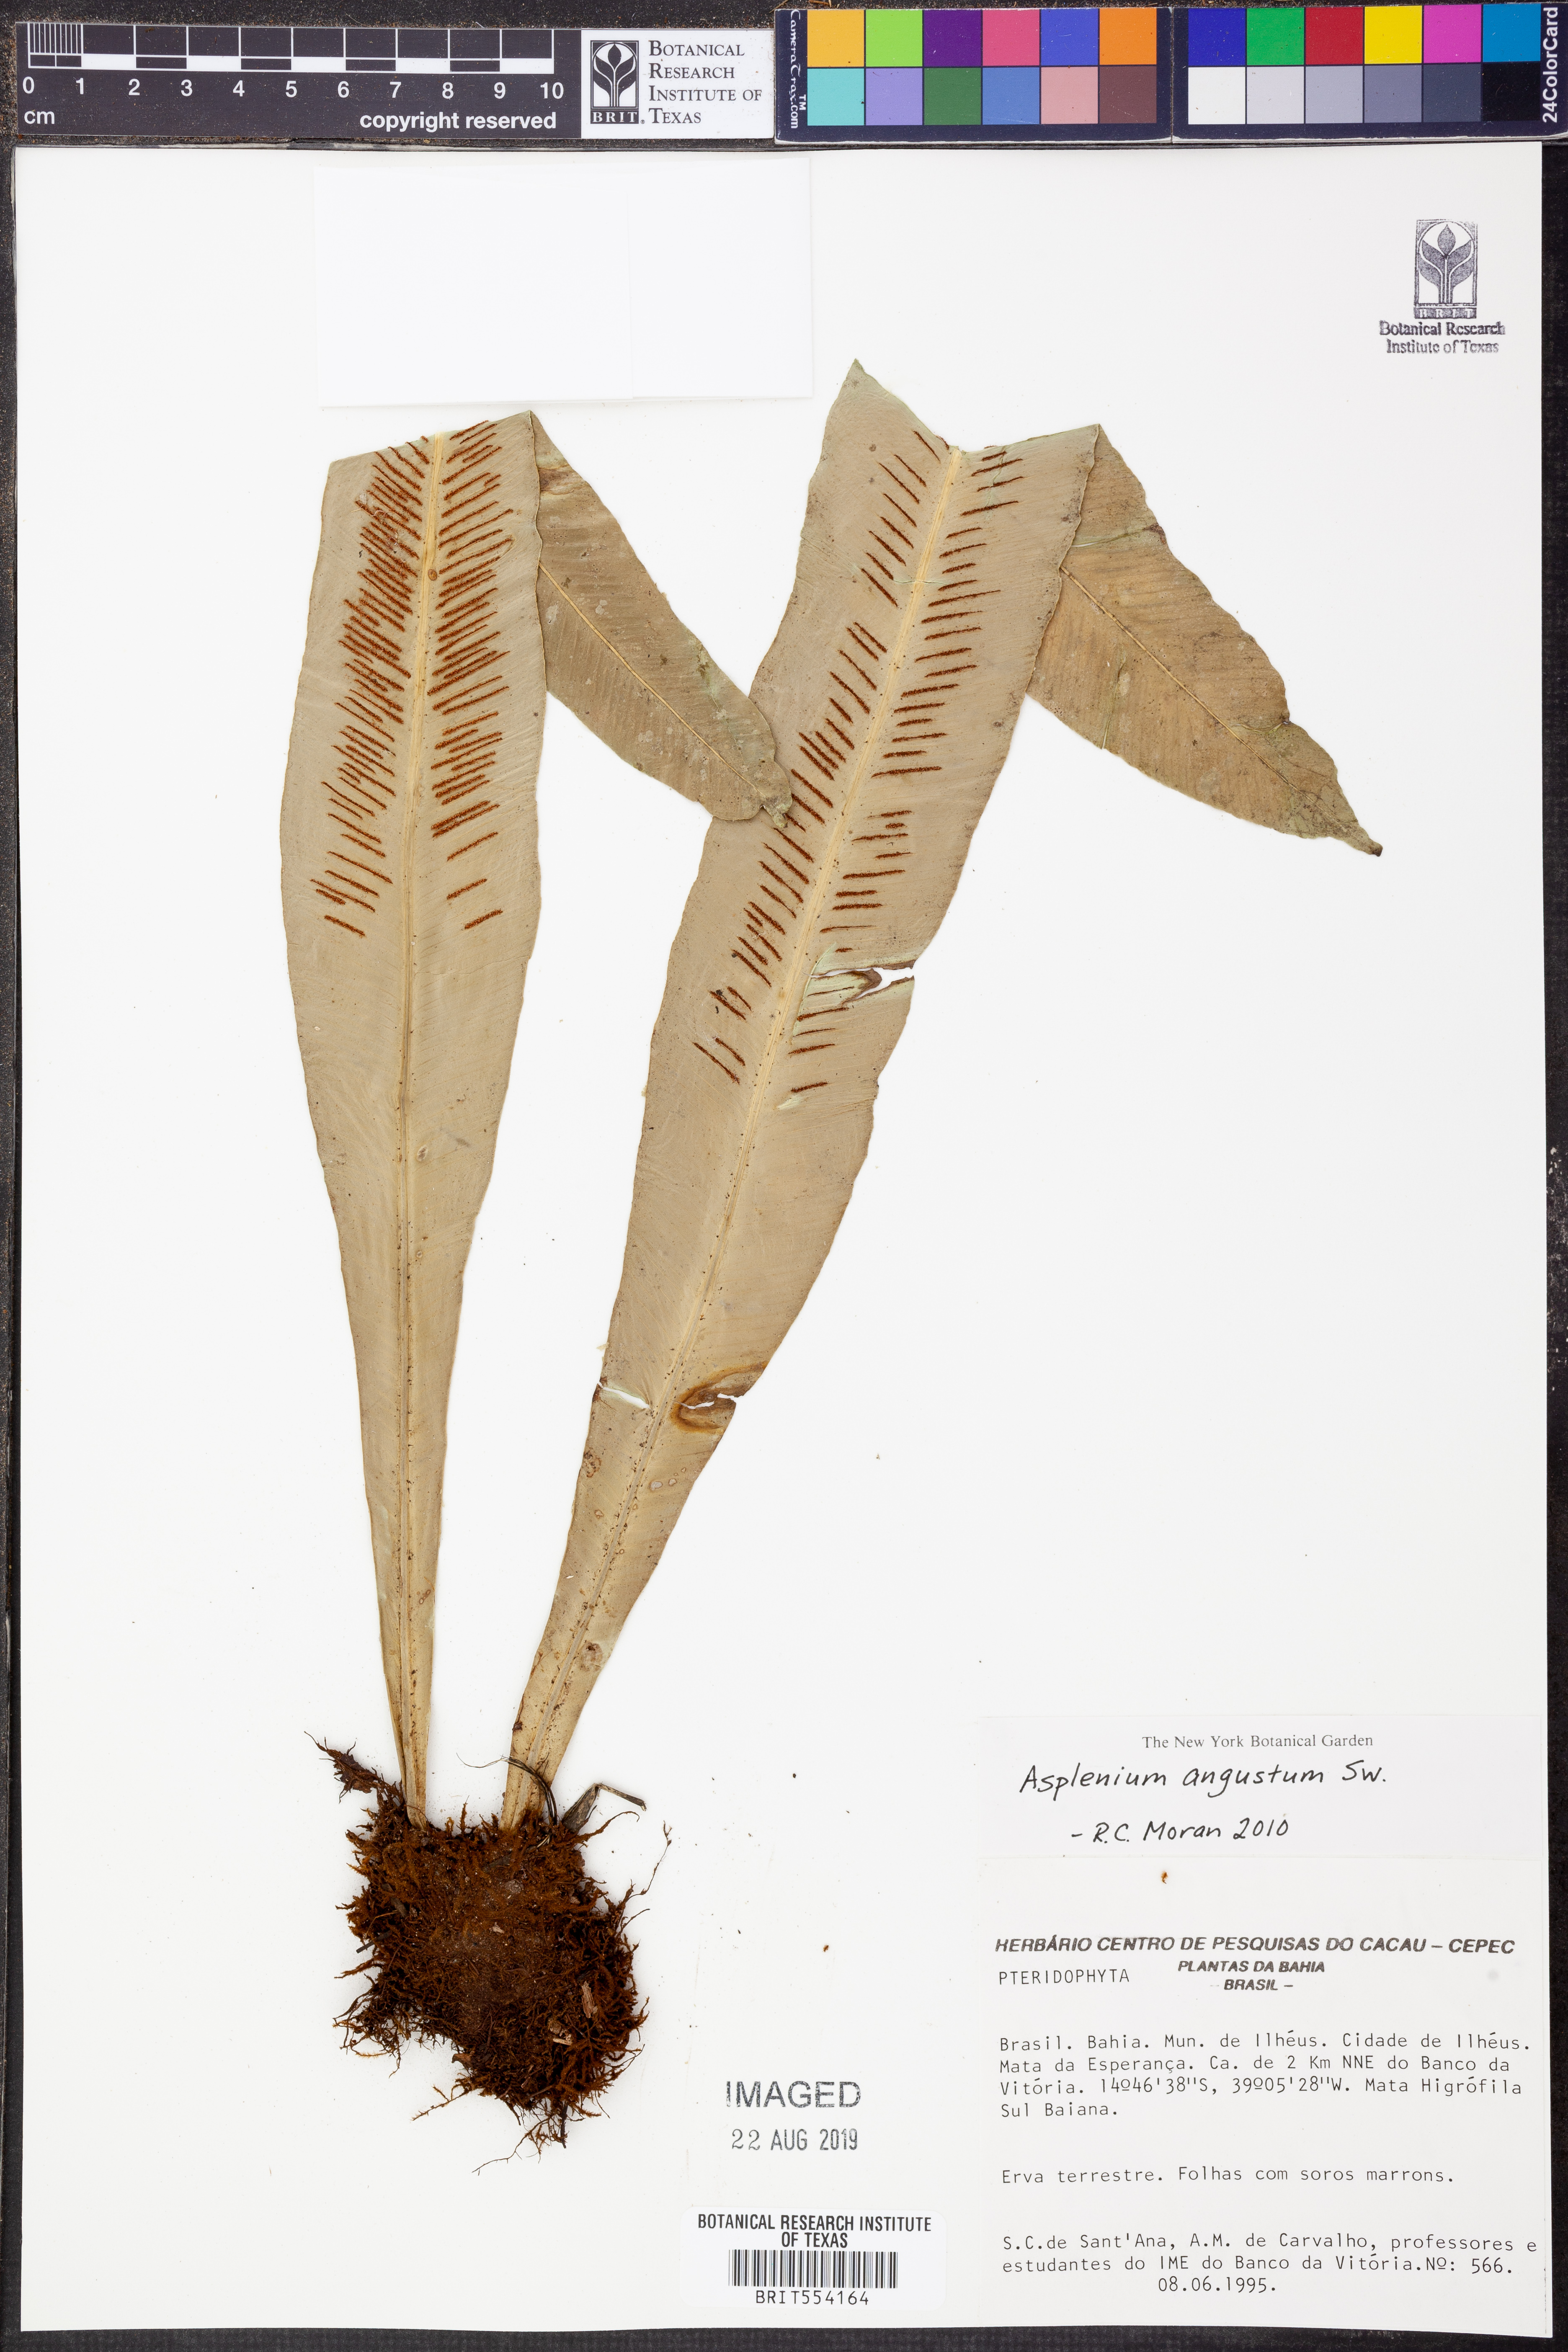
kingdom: Plantae
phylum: Tracheophyta
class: Polypodiopsida
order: Polypodiales
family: Aspleniaceae
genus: Asplenium
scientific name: Asplenium angustum
